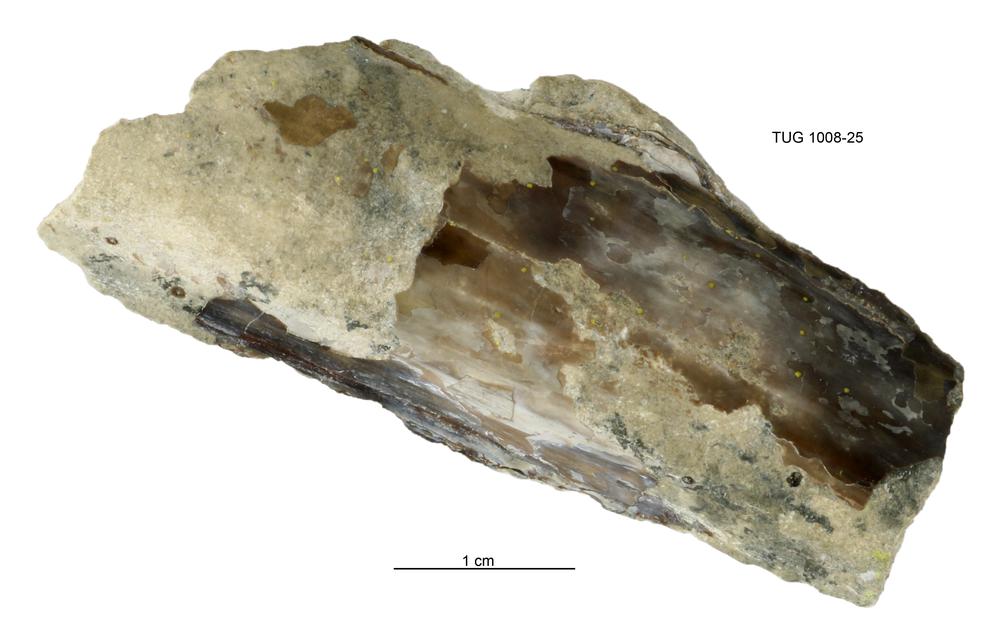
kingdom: Animalia
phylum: Cnidaria
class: Scyphozoa
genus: Sphenothallus
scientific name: Sphenothallus
